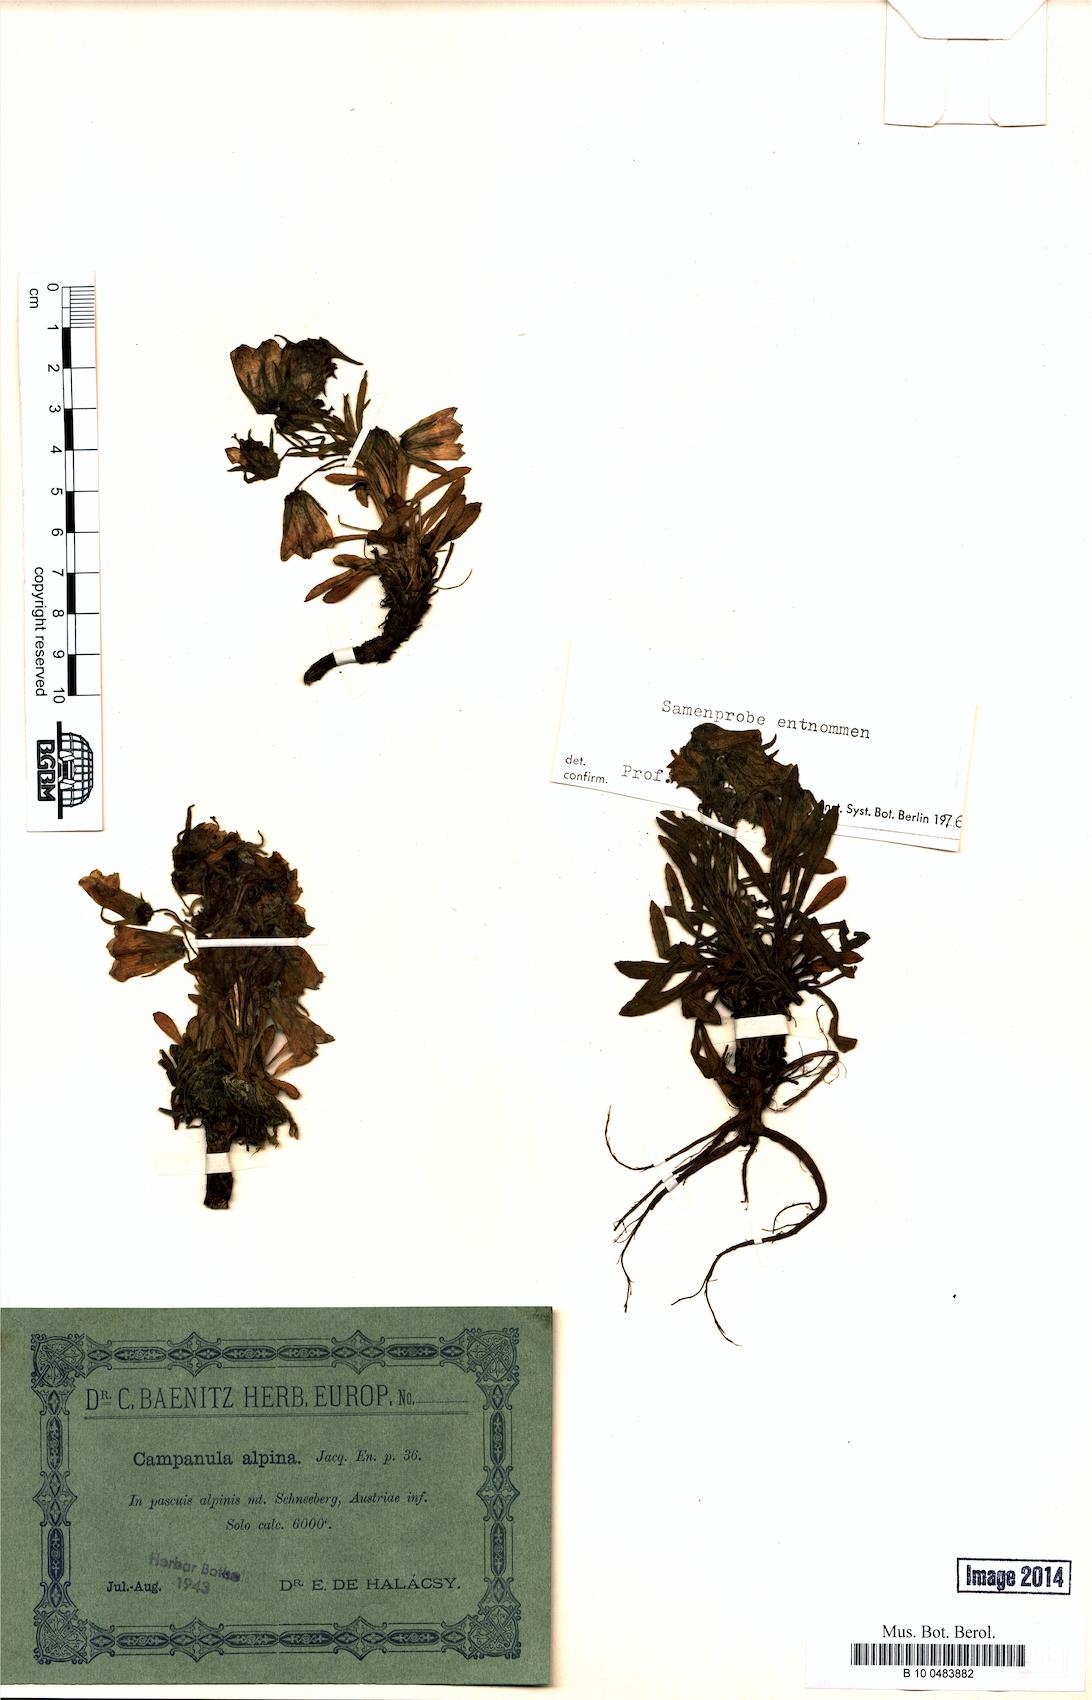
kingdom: Plantae
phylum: Tracheophyta
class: Magnoliopsida
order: Asterales
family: Campanulaceae
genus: Campanula
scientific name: Campanula alpina
